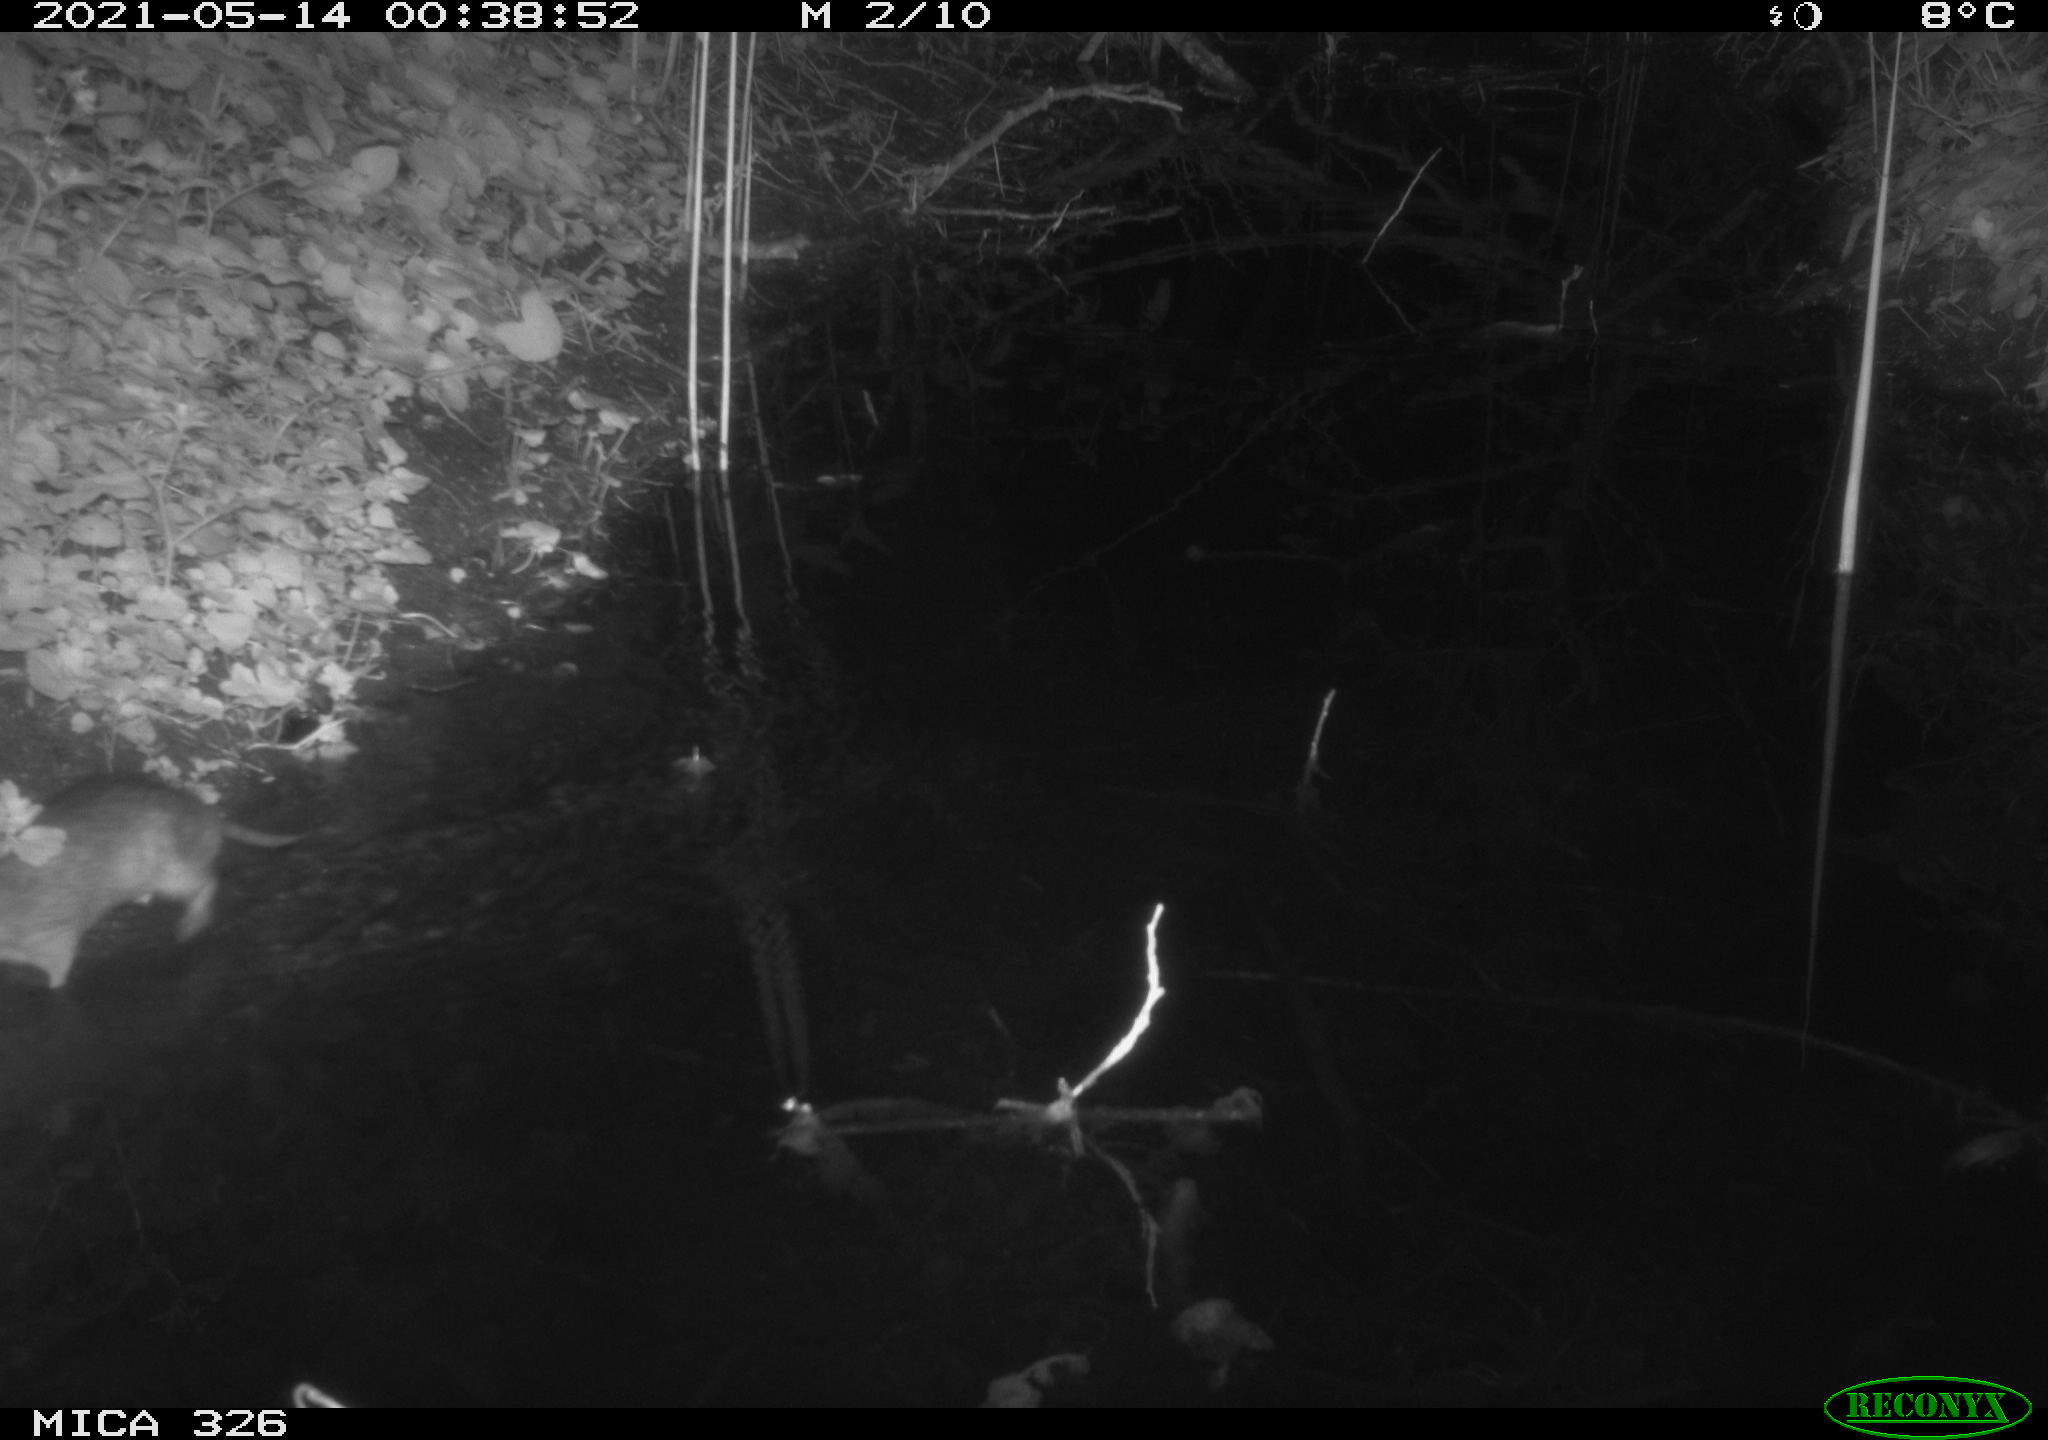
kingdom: Animalia
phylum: Chordata
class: Mammalia
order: Rodentia
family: Muridae
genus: Rattus
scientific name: Rattus norvegicus
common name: Brown rat
